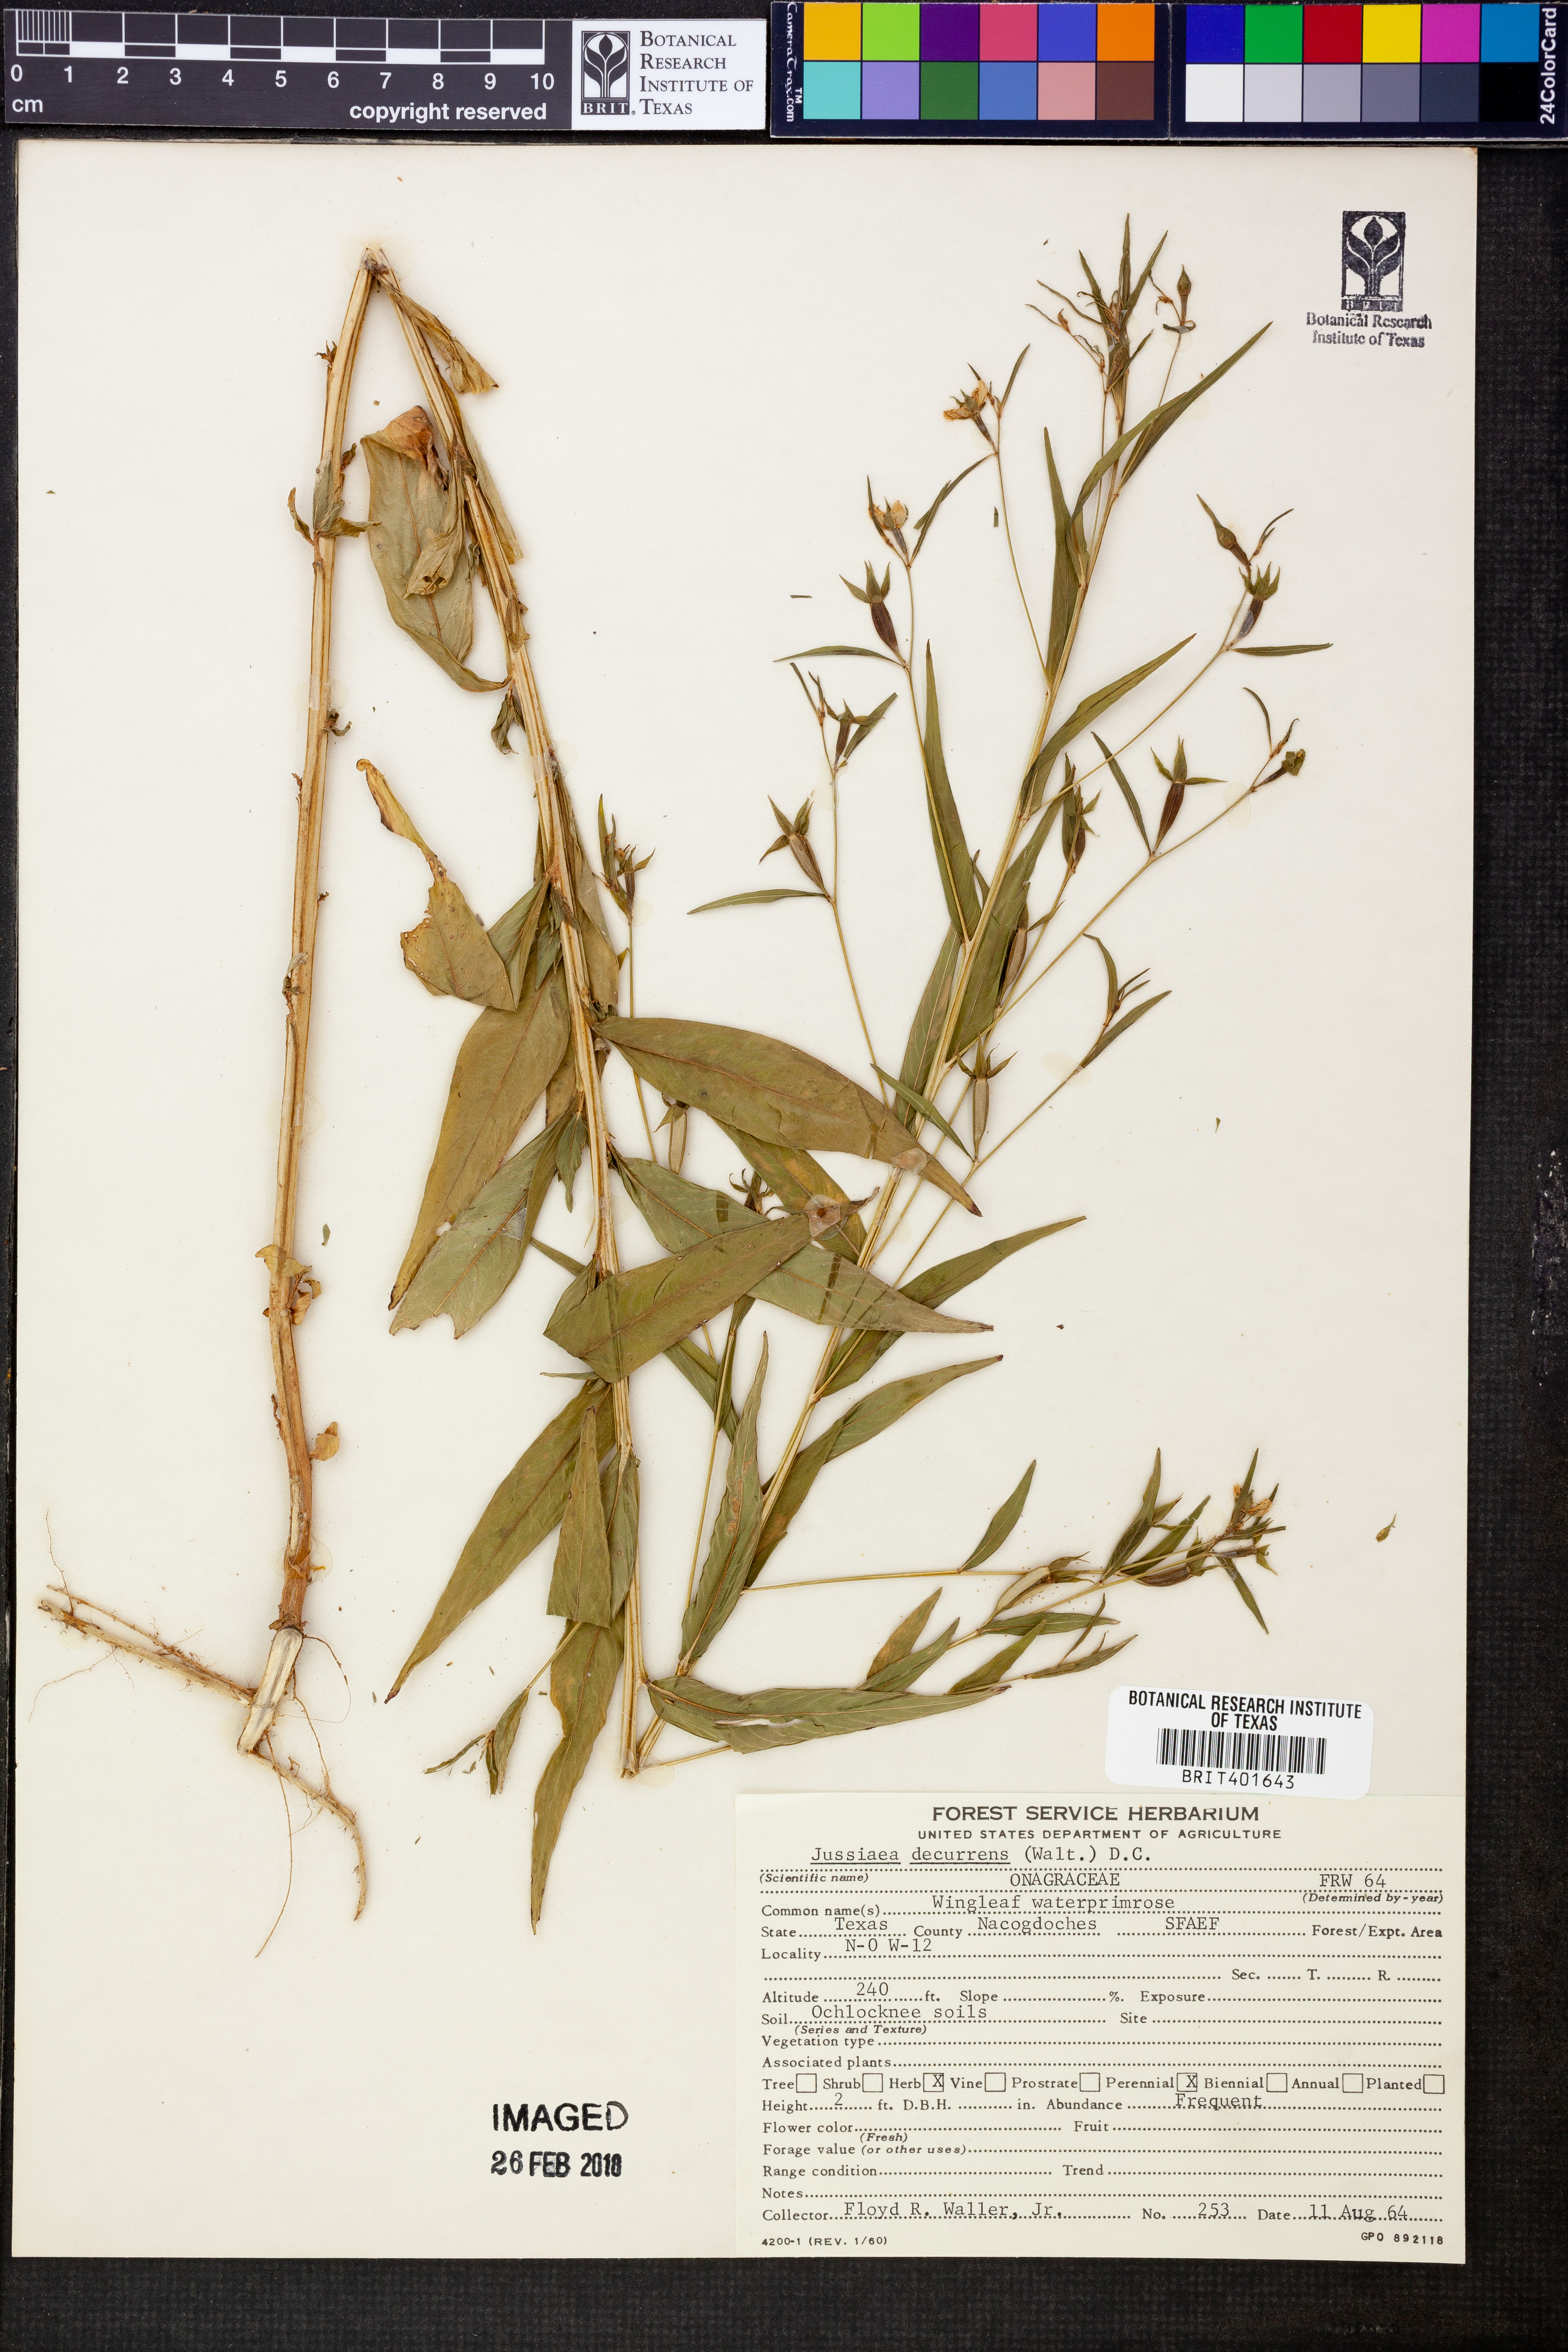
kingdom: Plantae
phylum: Tracheophyta
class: Magnoliopsida
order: Myrtales
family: Onagraceae
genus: Ludwigia
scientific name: Ludwigia decurrens
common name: Winged water-primrose
